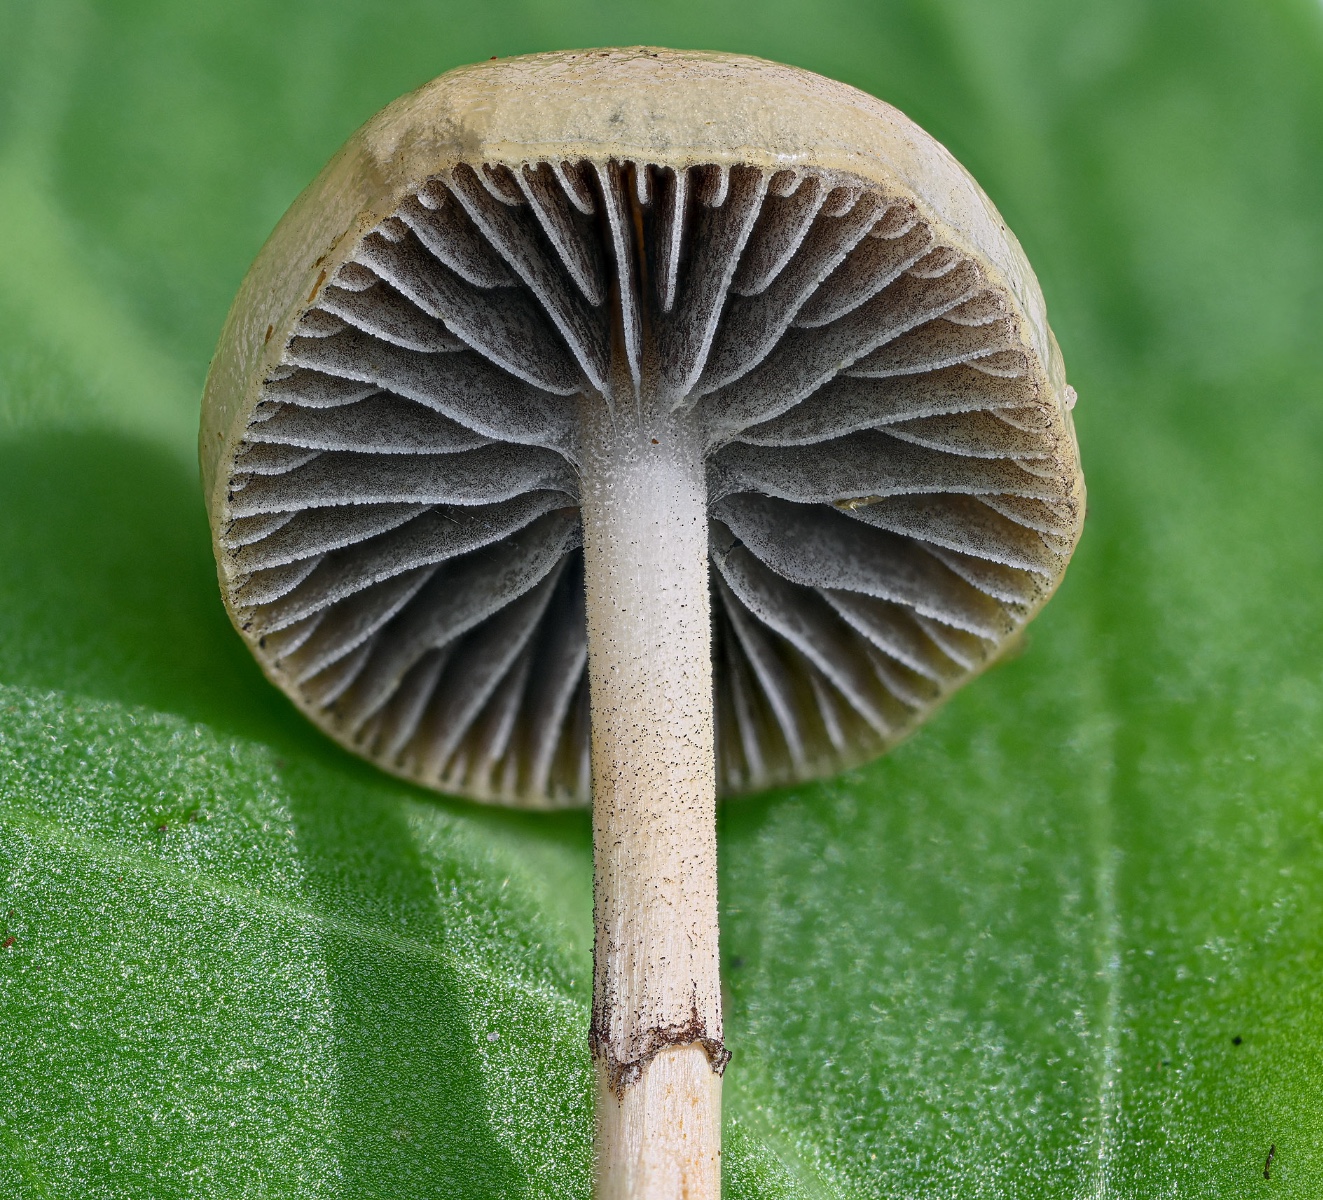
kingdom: Fungi
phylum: Basidiomycota
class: Agaricomycetes
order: Agaricales
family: Strophariaceae
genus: Protostropharia
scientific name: Protostropharia semiglobata
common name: halvkugleformet bredblad
